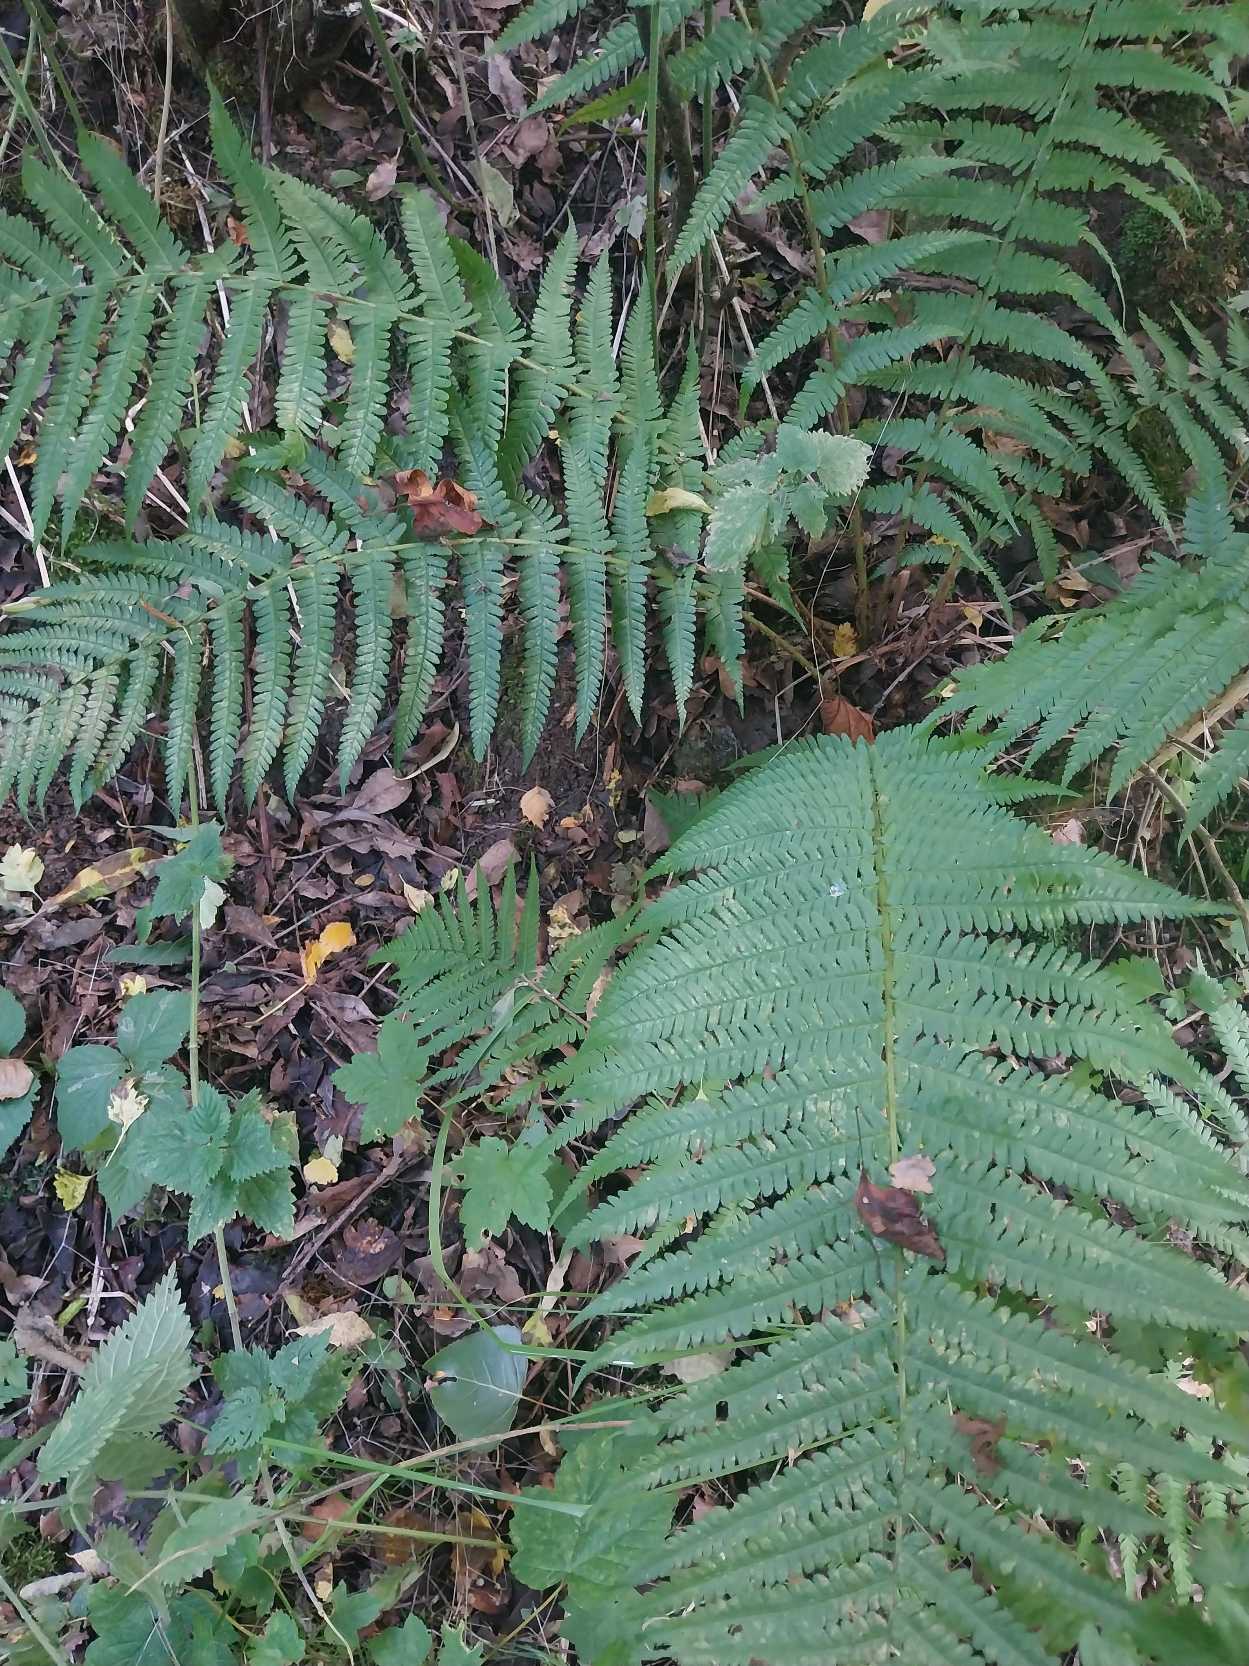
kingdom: Plantae
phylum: Tracheophyta
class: Polypodiopsida
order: Polypodiales
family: Dryopteridaceae
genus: Dryopteris
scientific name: Dryopteris filix-mas
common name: Almindelig mangeløv
